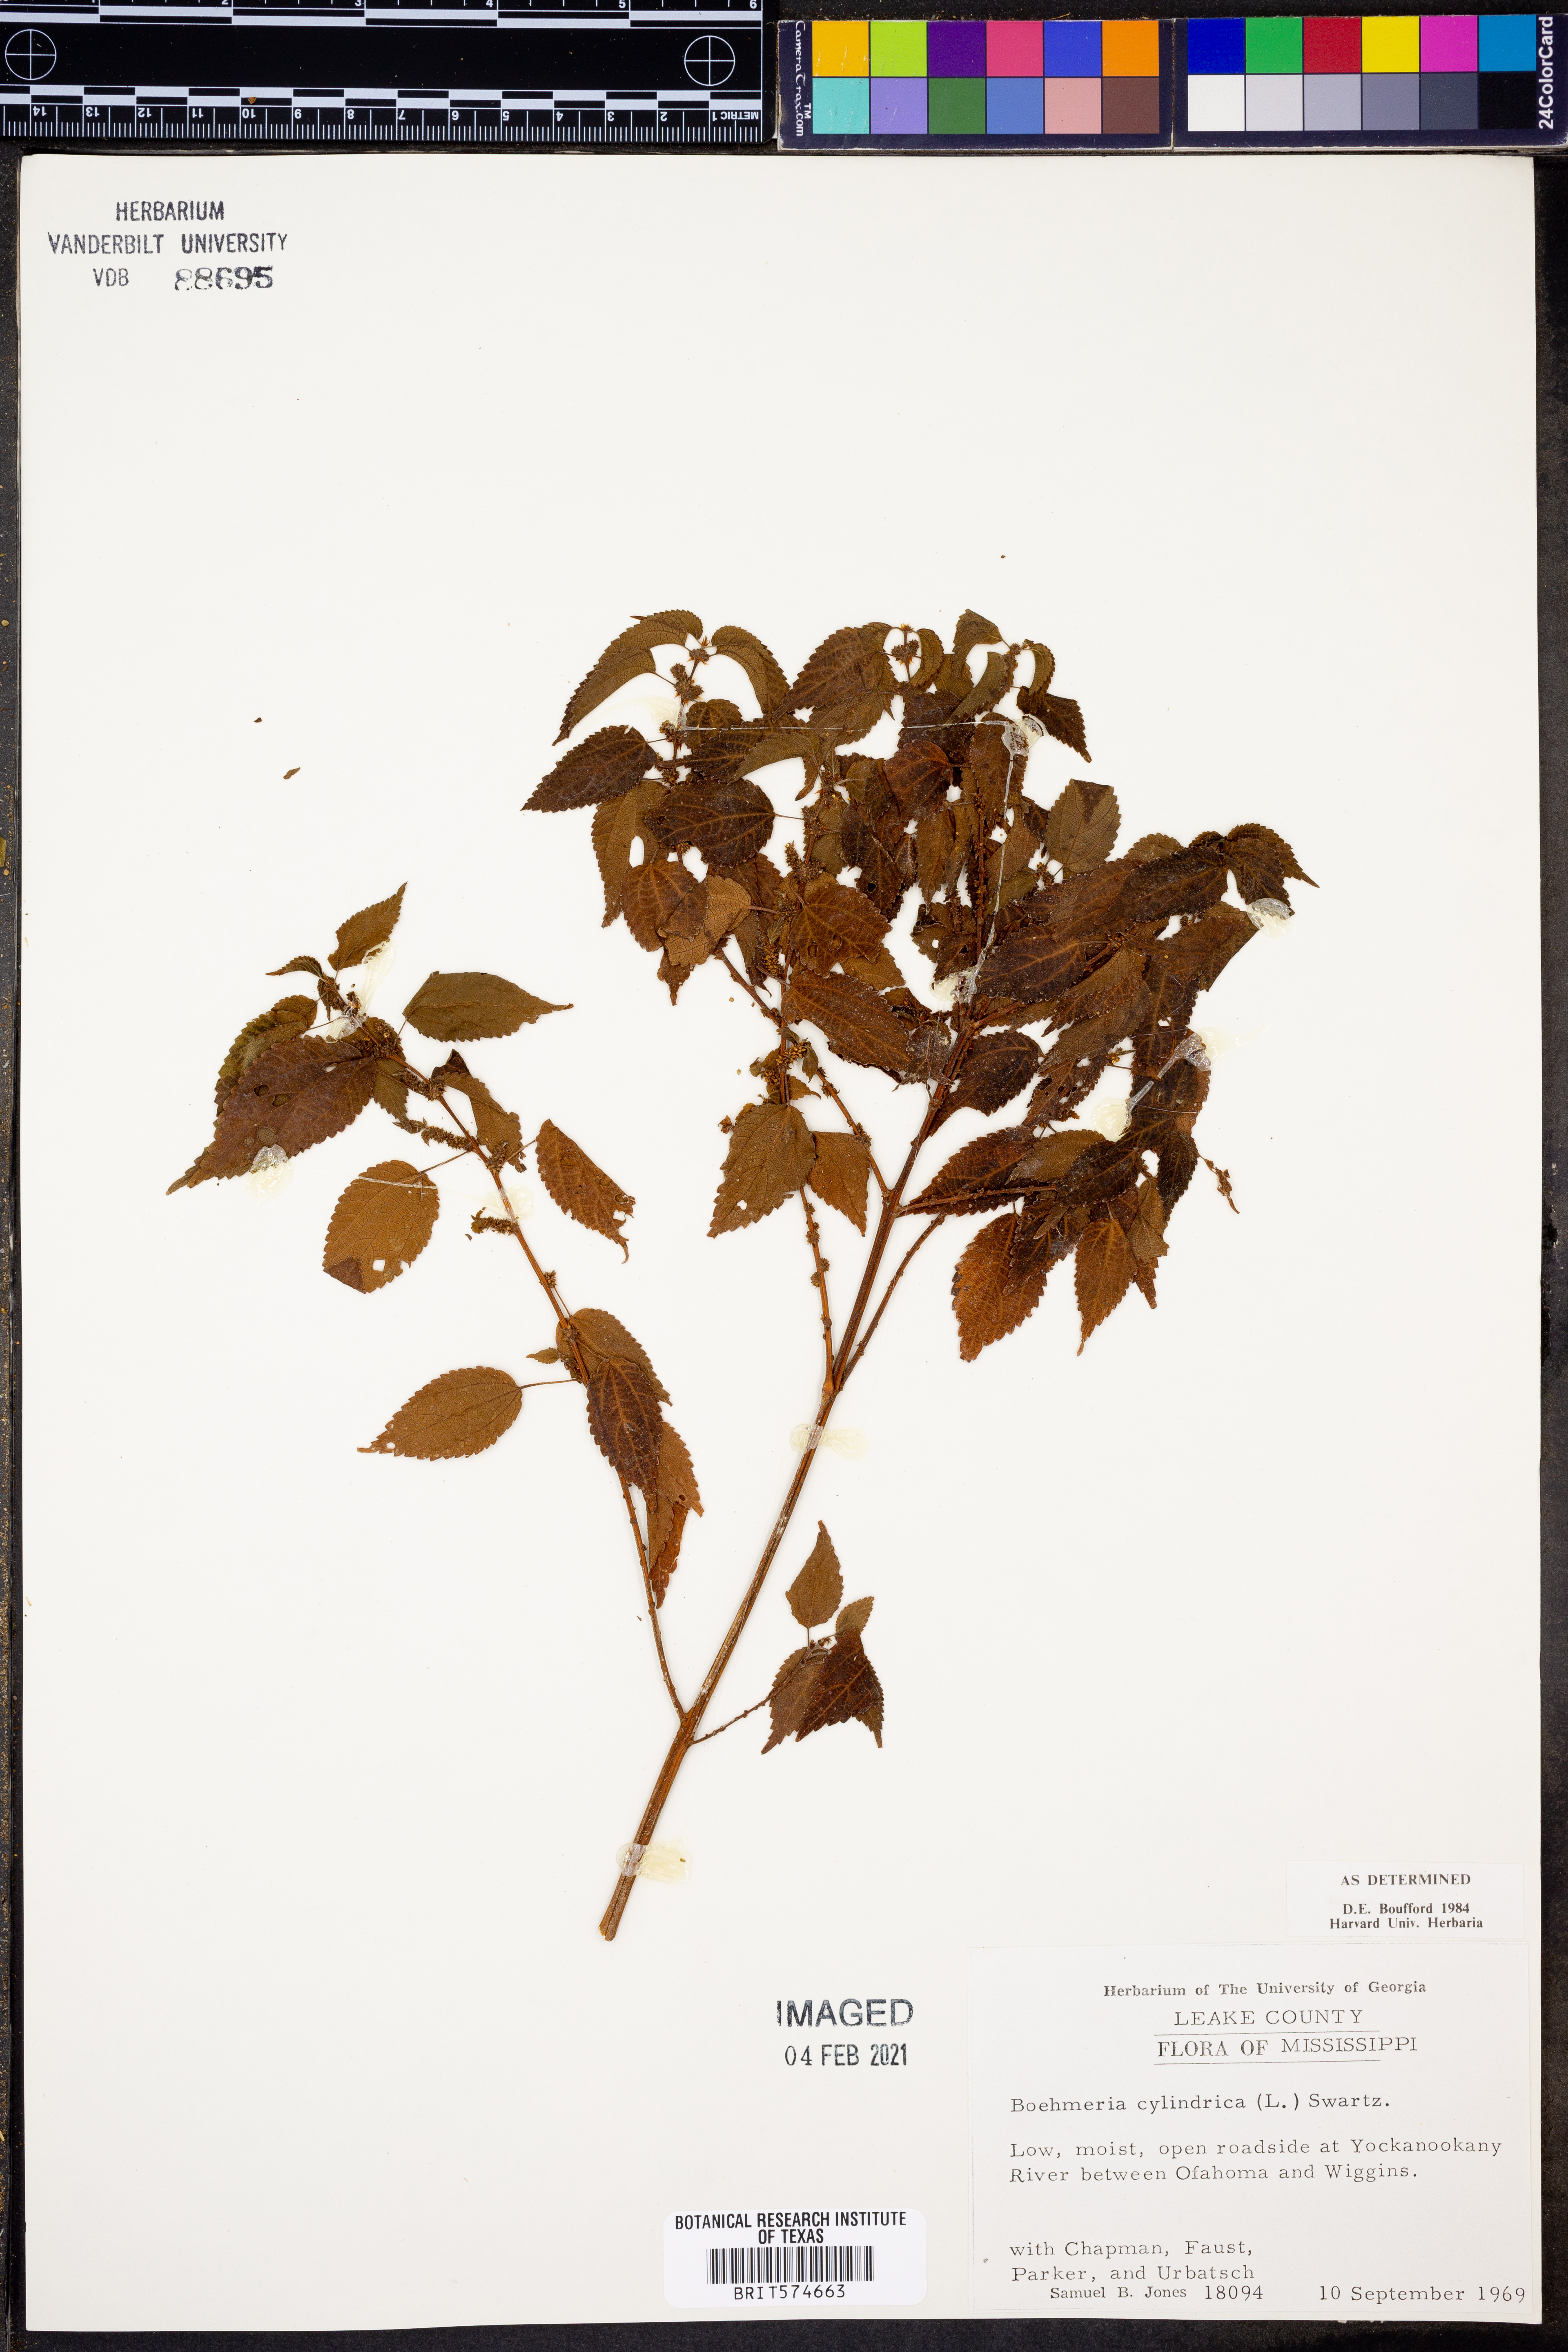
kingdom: Plantae
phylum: Tracheophyta
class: Magnoliopsida
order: Rosales
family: Urticaceae
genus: Boehmeria
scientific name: Boehmeria cylindrica
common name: Bog-hemp
